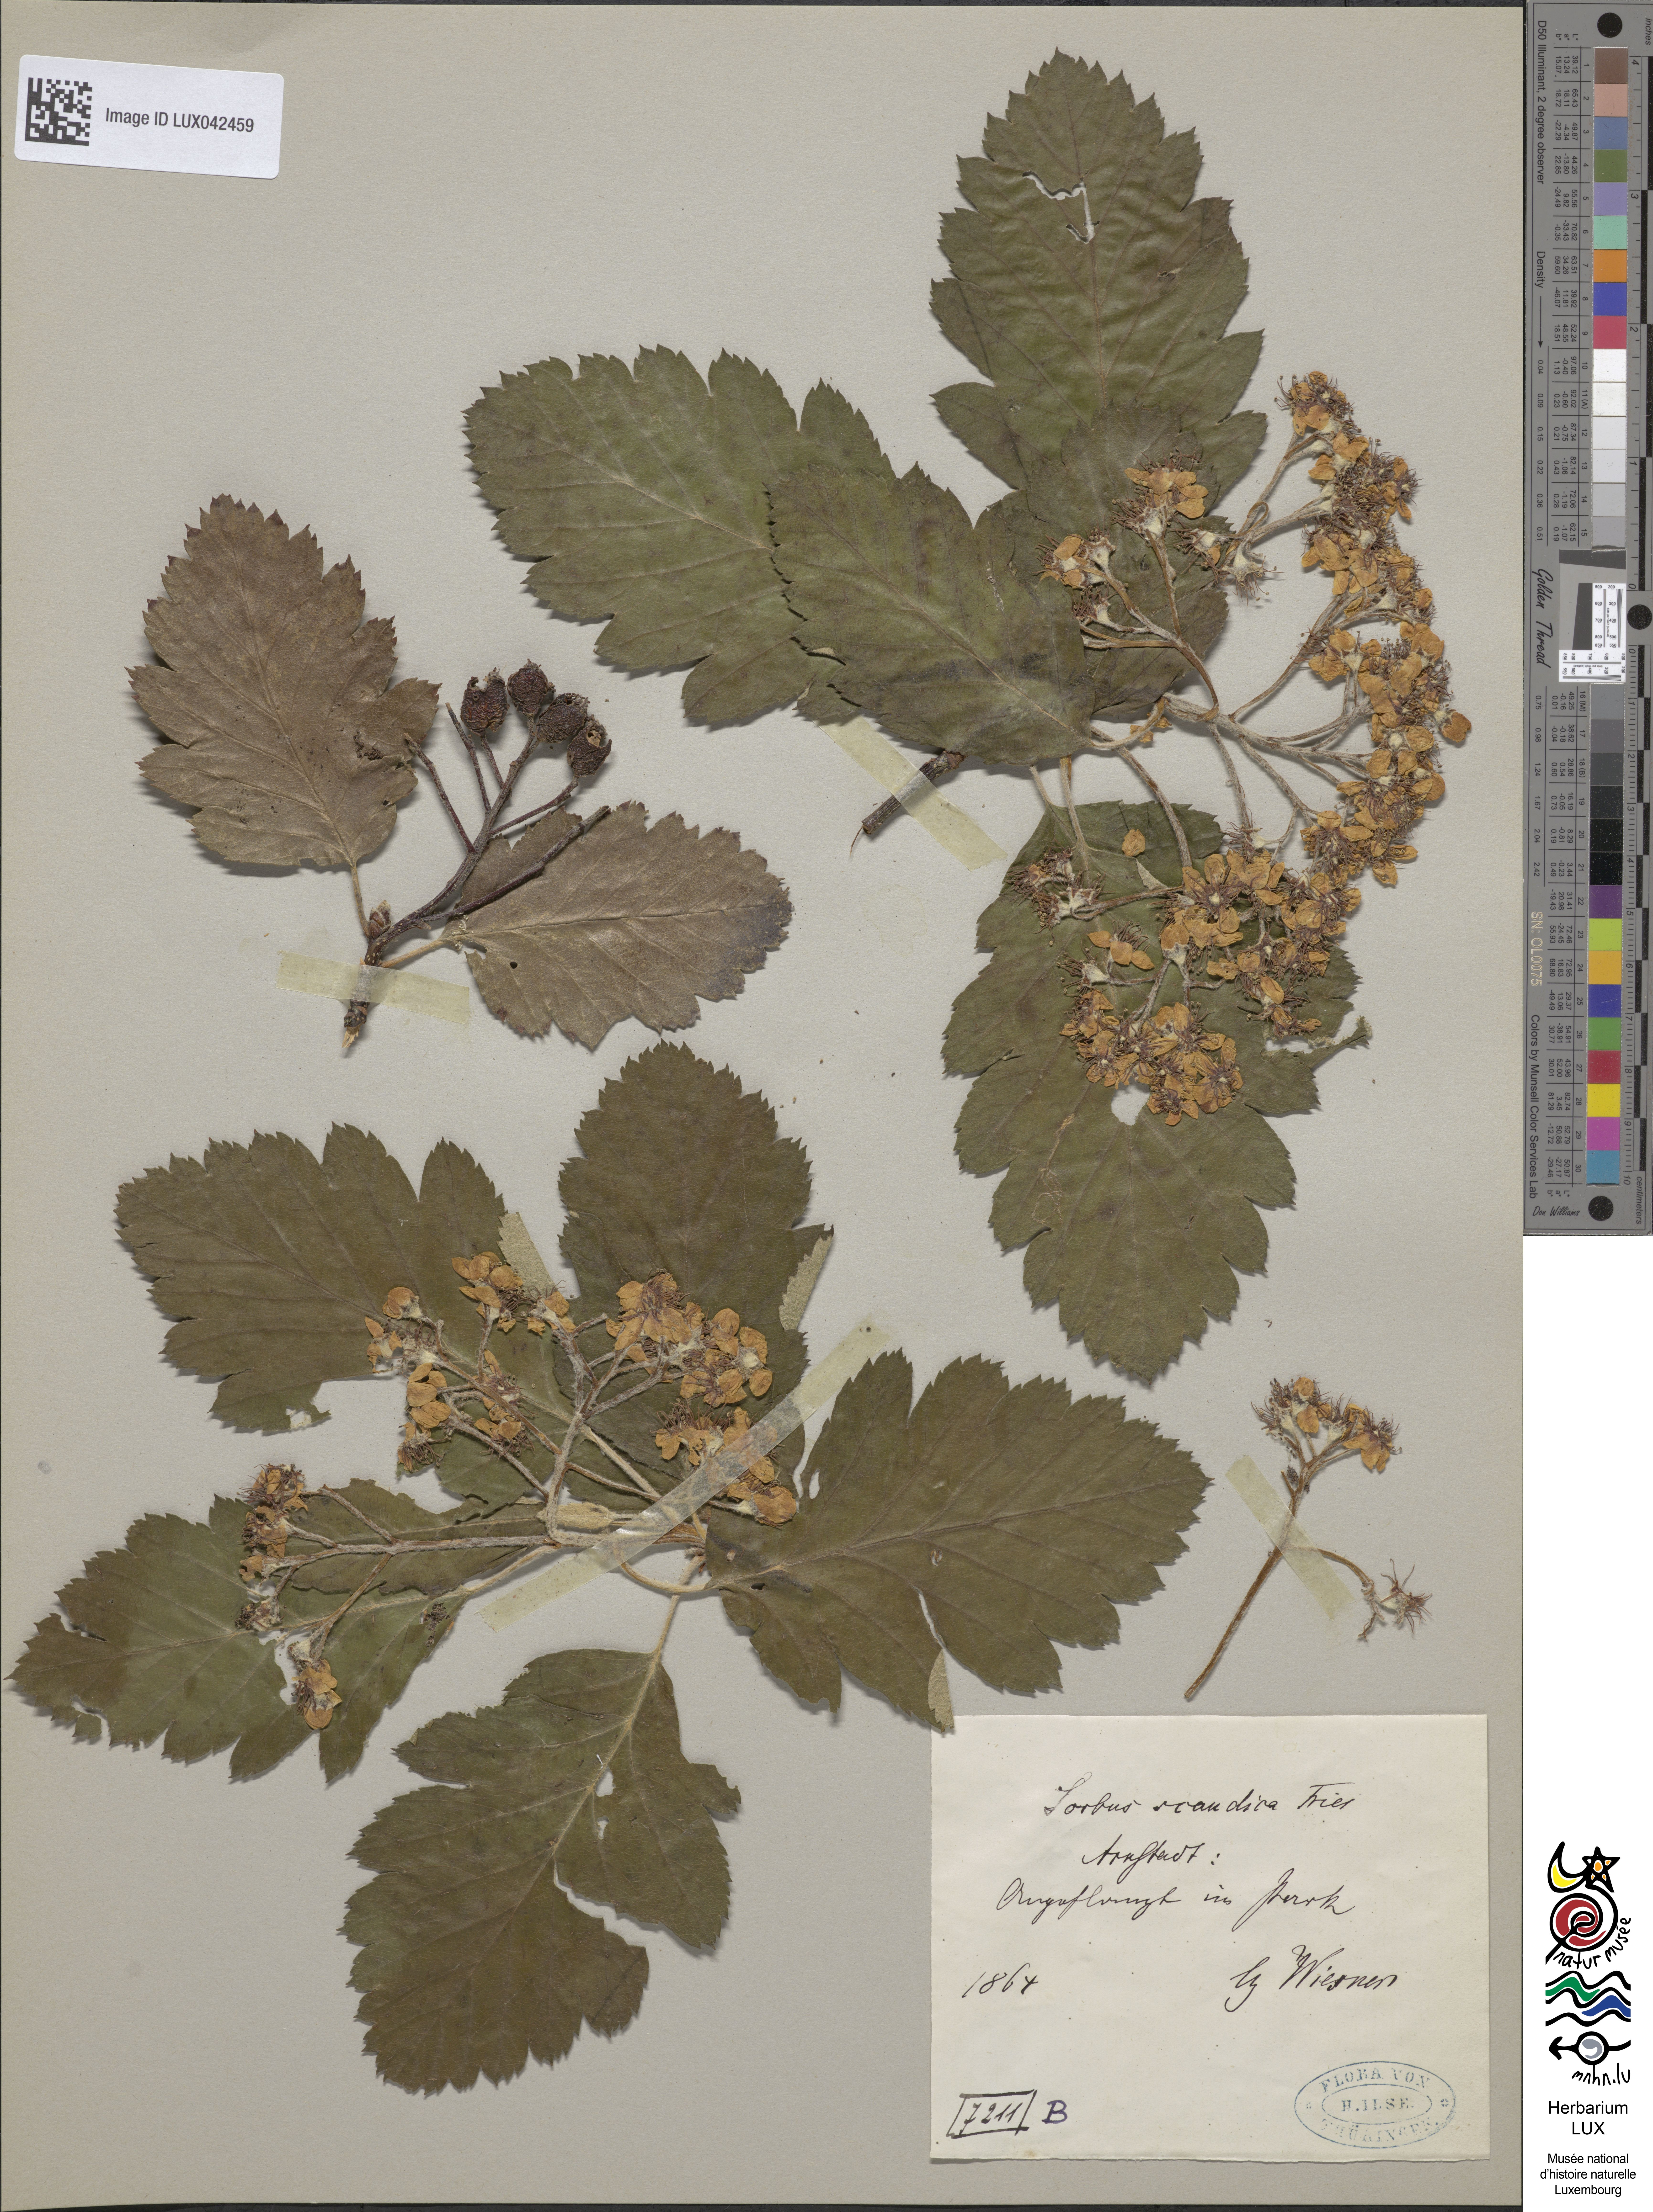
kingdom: Plantae
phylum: Tracheophyta
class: Magnoliopsida
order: Rosales
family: Rosaceae
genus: Scandosorbus
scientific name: Scandosorbus intermedia
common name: Swedish whitebeam
